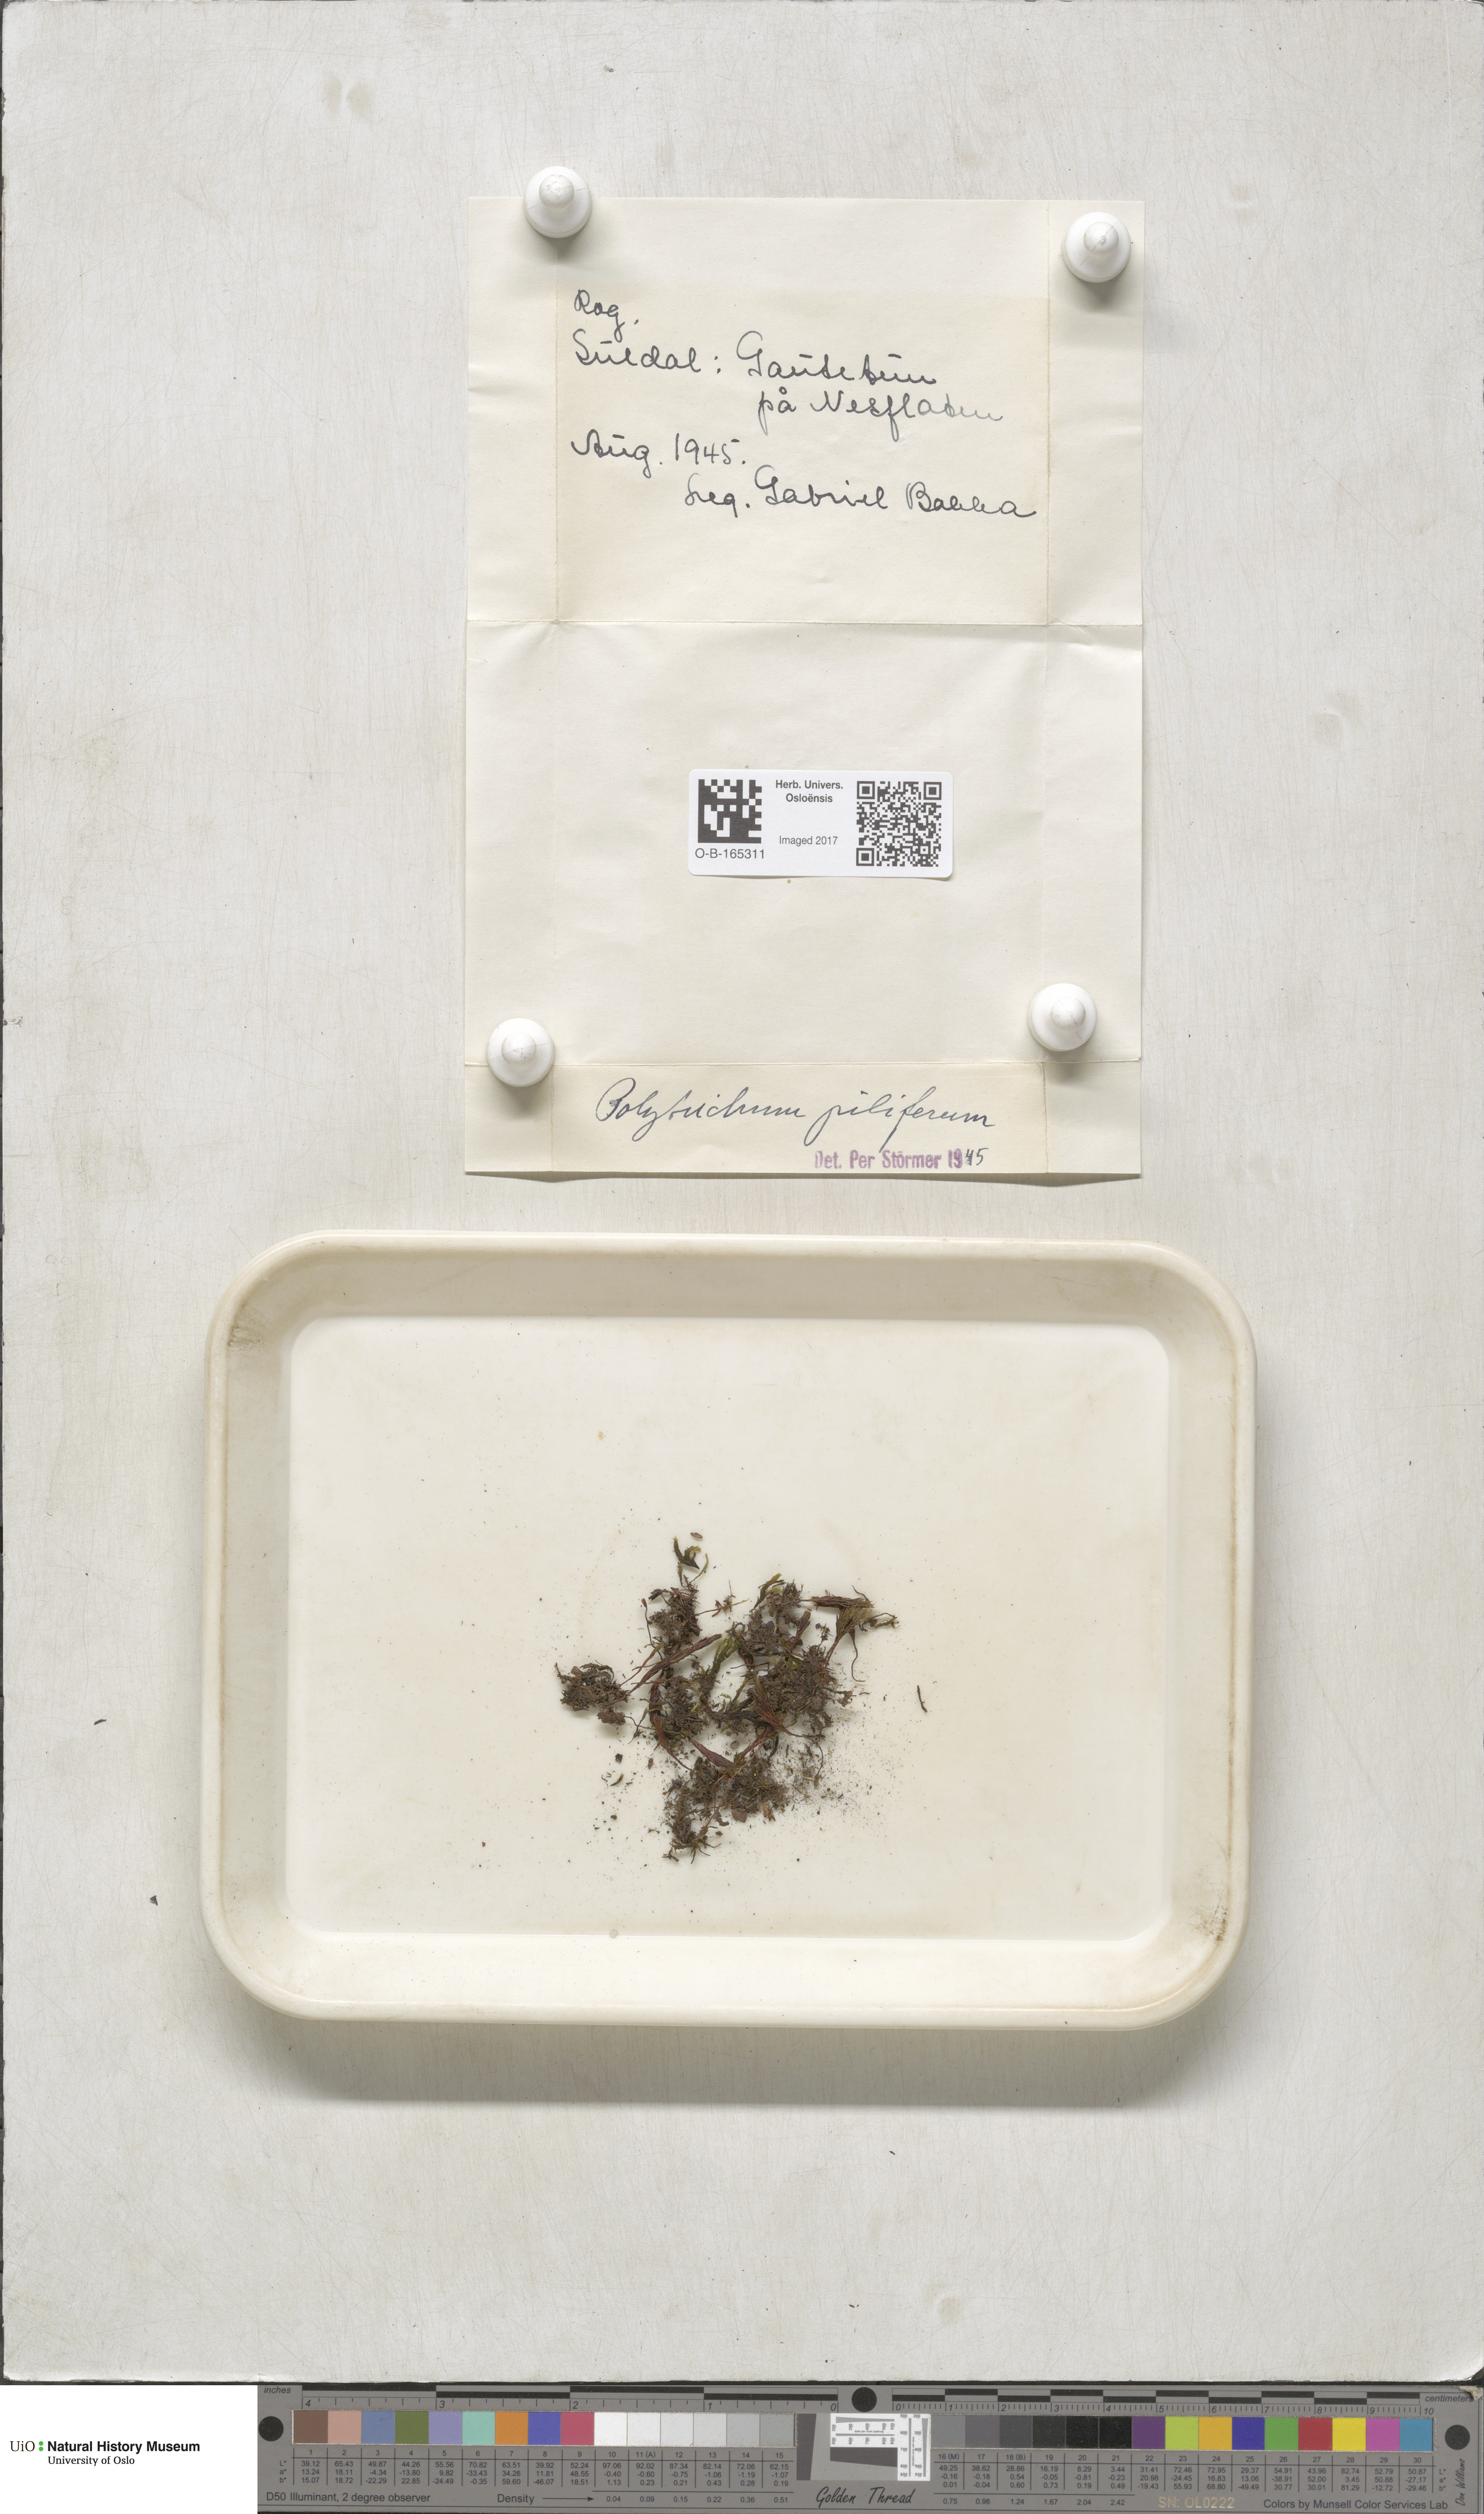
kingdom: Plantae
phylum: Bryophyta
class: Polytrichopsida
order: Polytrichales
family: Polytrichaceae
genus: Polytrichum
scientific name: Polytrichum piliferum
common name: Bristly haircap
